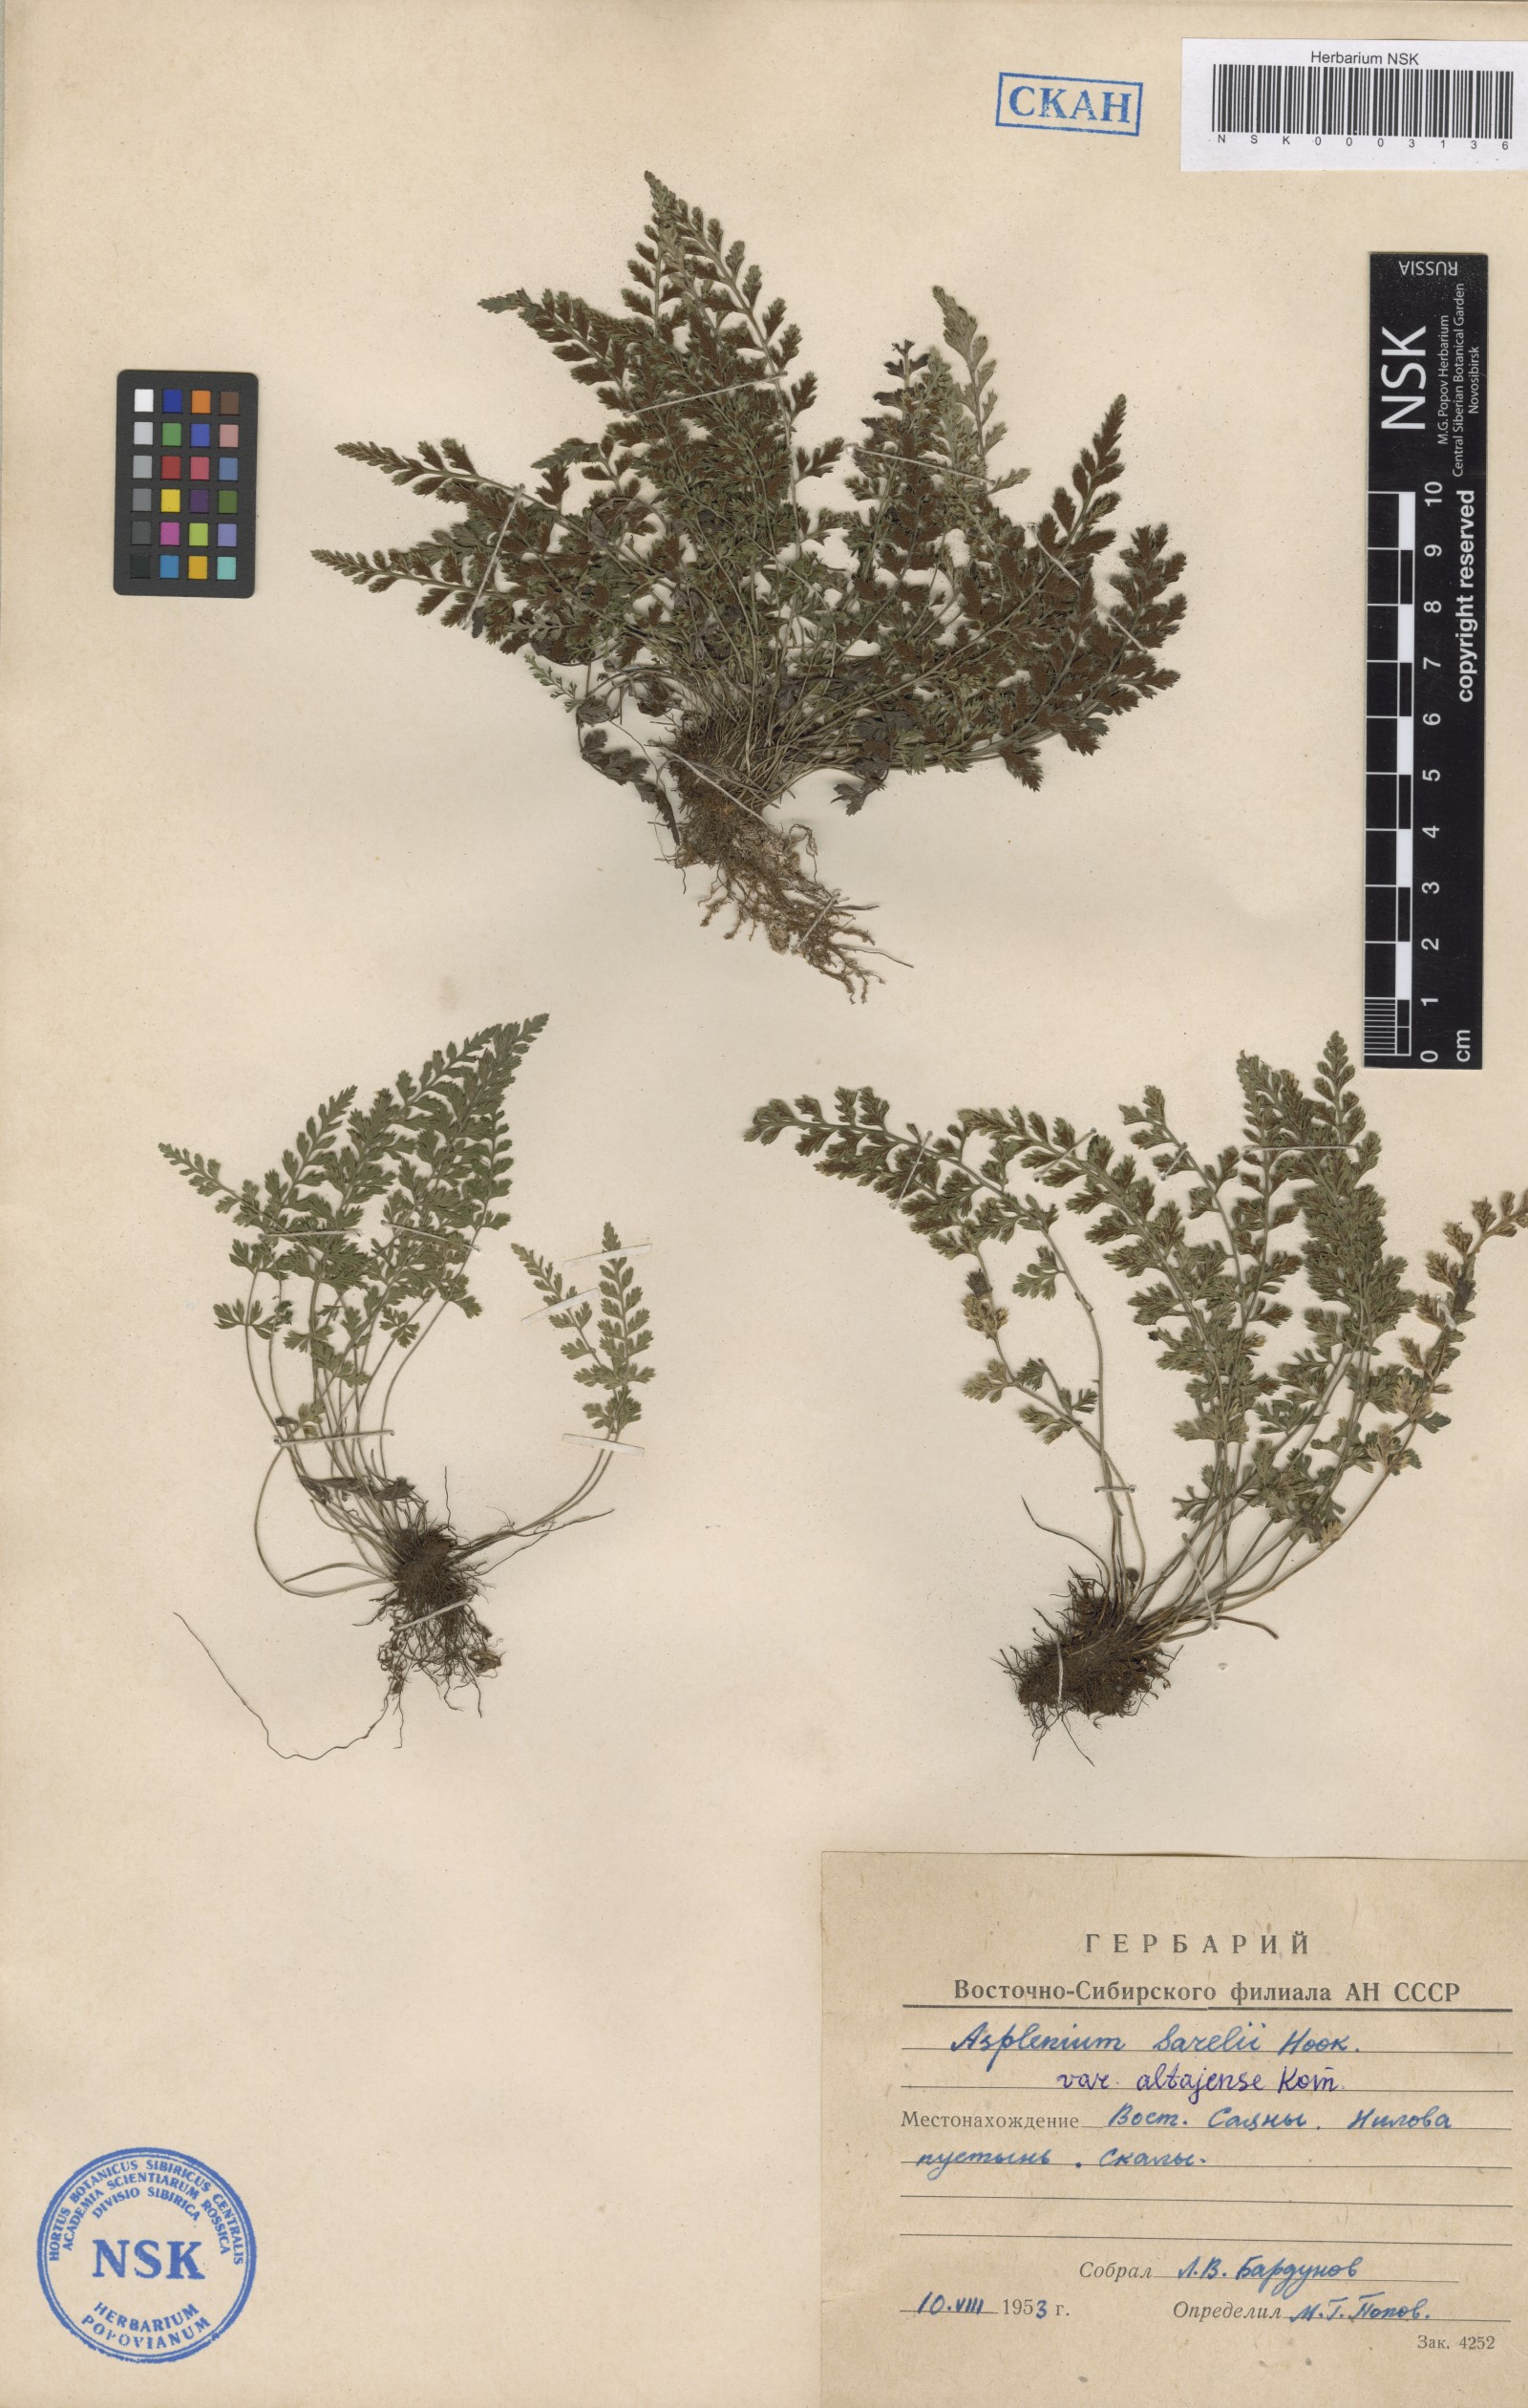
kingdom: Plantae
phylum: Tracheophyta
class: Polypodiopsida
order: Polypodiales
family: Aspleniaceae
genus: Asplenium
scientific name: Asplenium altajense
